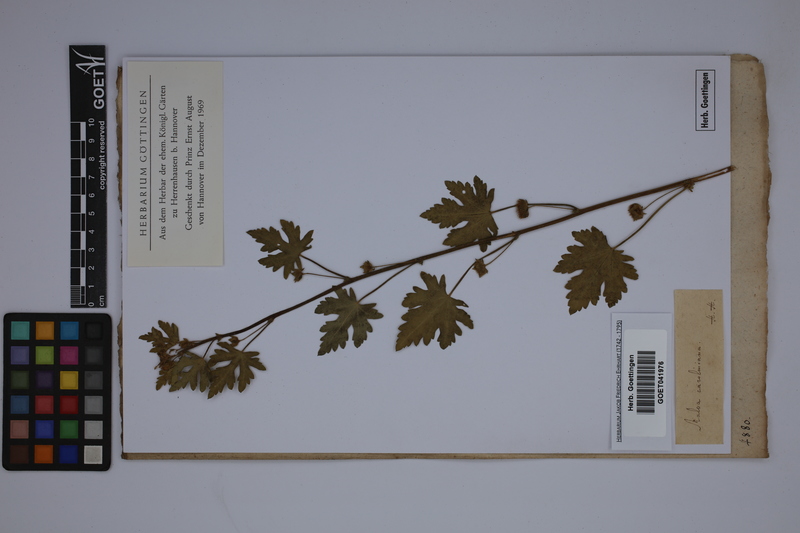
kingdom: Plantae
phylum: Tracheophyta
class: Magnoliopsida
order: Malvales
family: Malvaceae
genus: Modiola
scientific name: Modiola caroliniana
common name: Carolina bristlemallow
